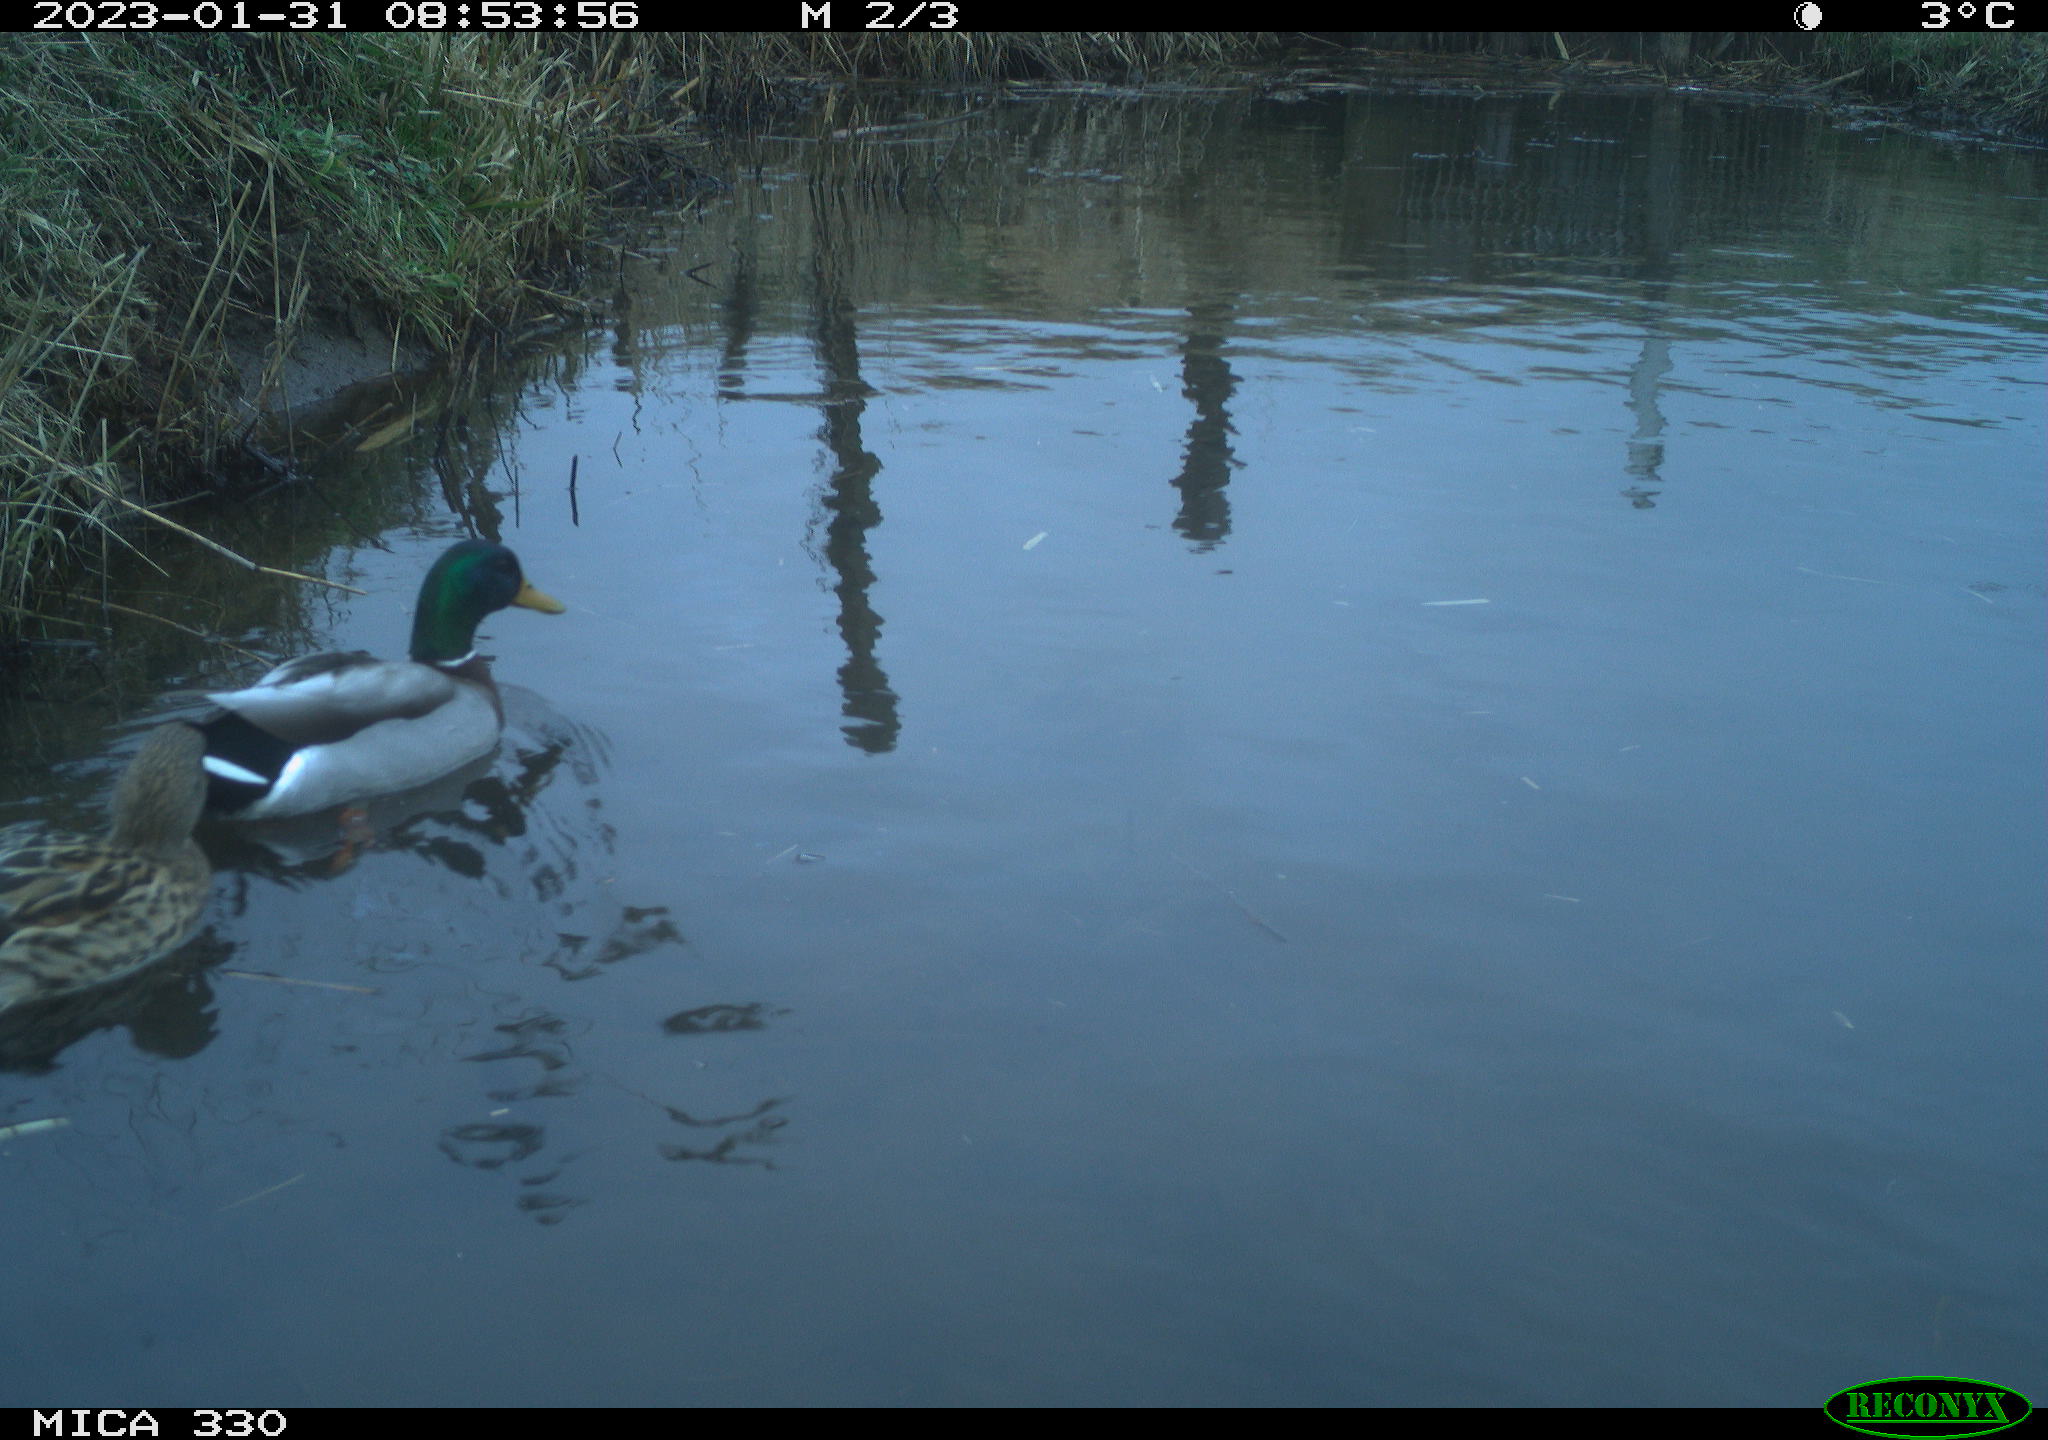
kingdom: Animalia
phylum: Chordata
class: Aves
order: Anseriformes
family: Anatidae
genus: Anas
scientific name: Anas
